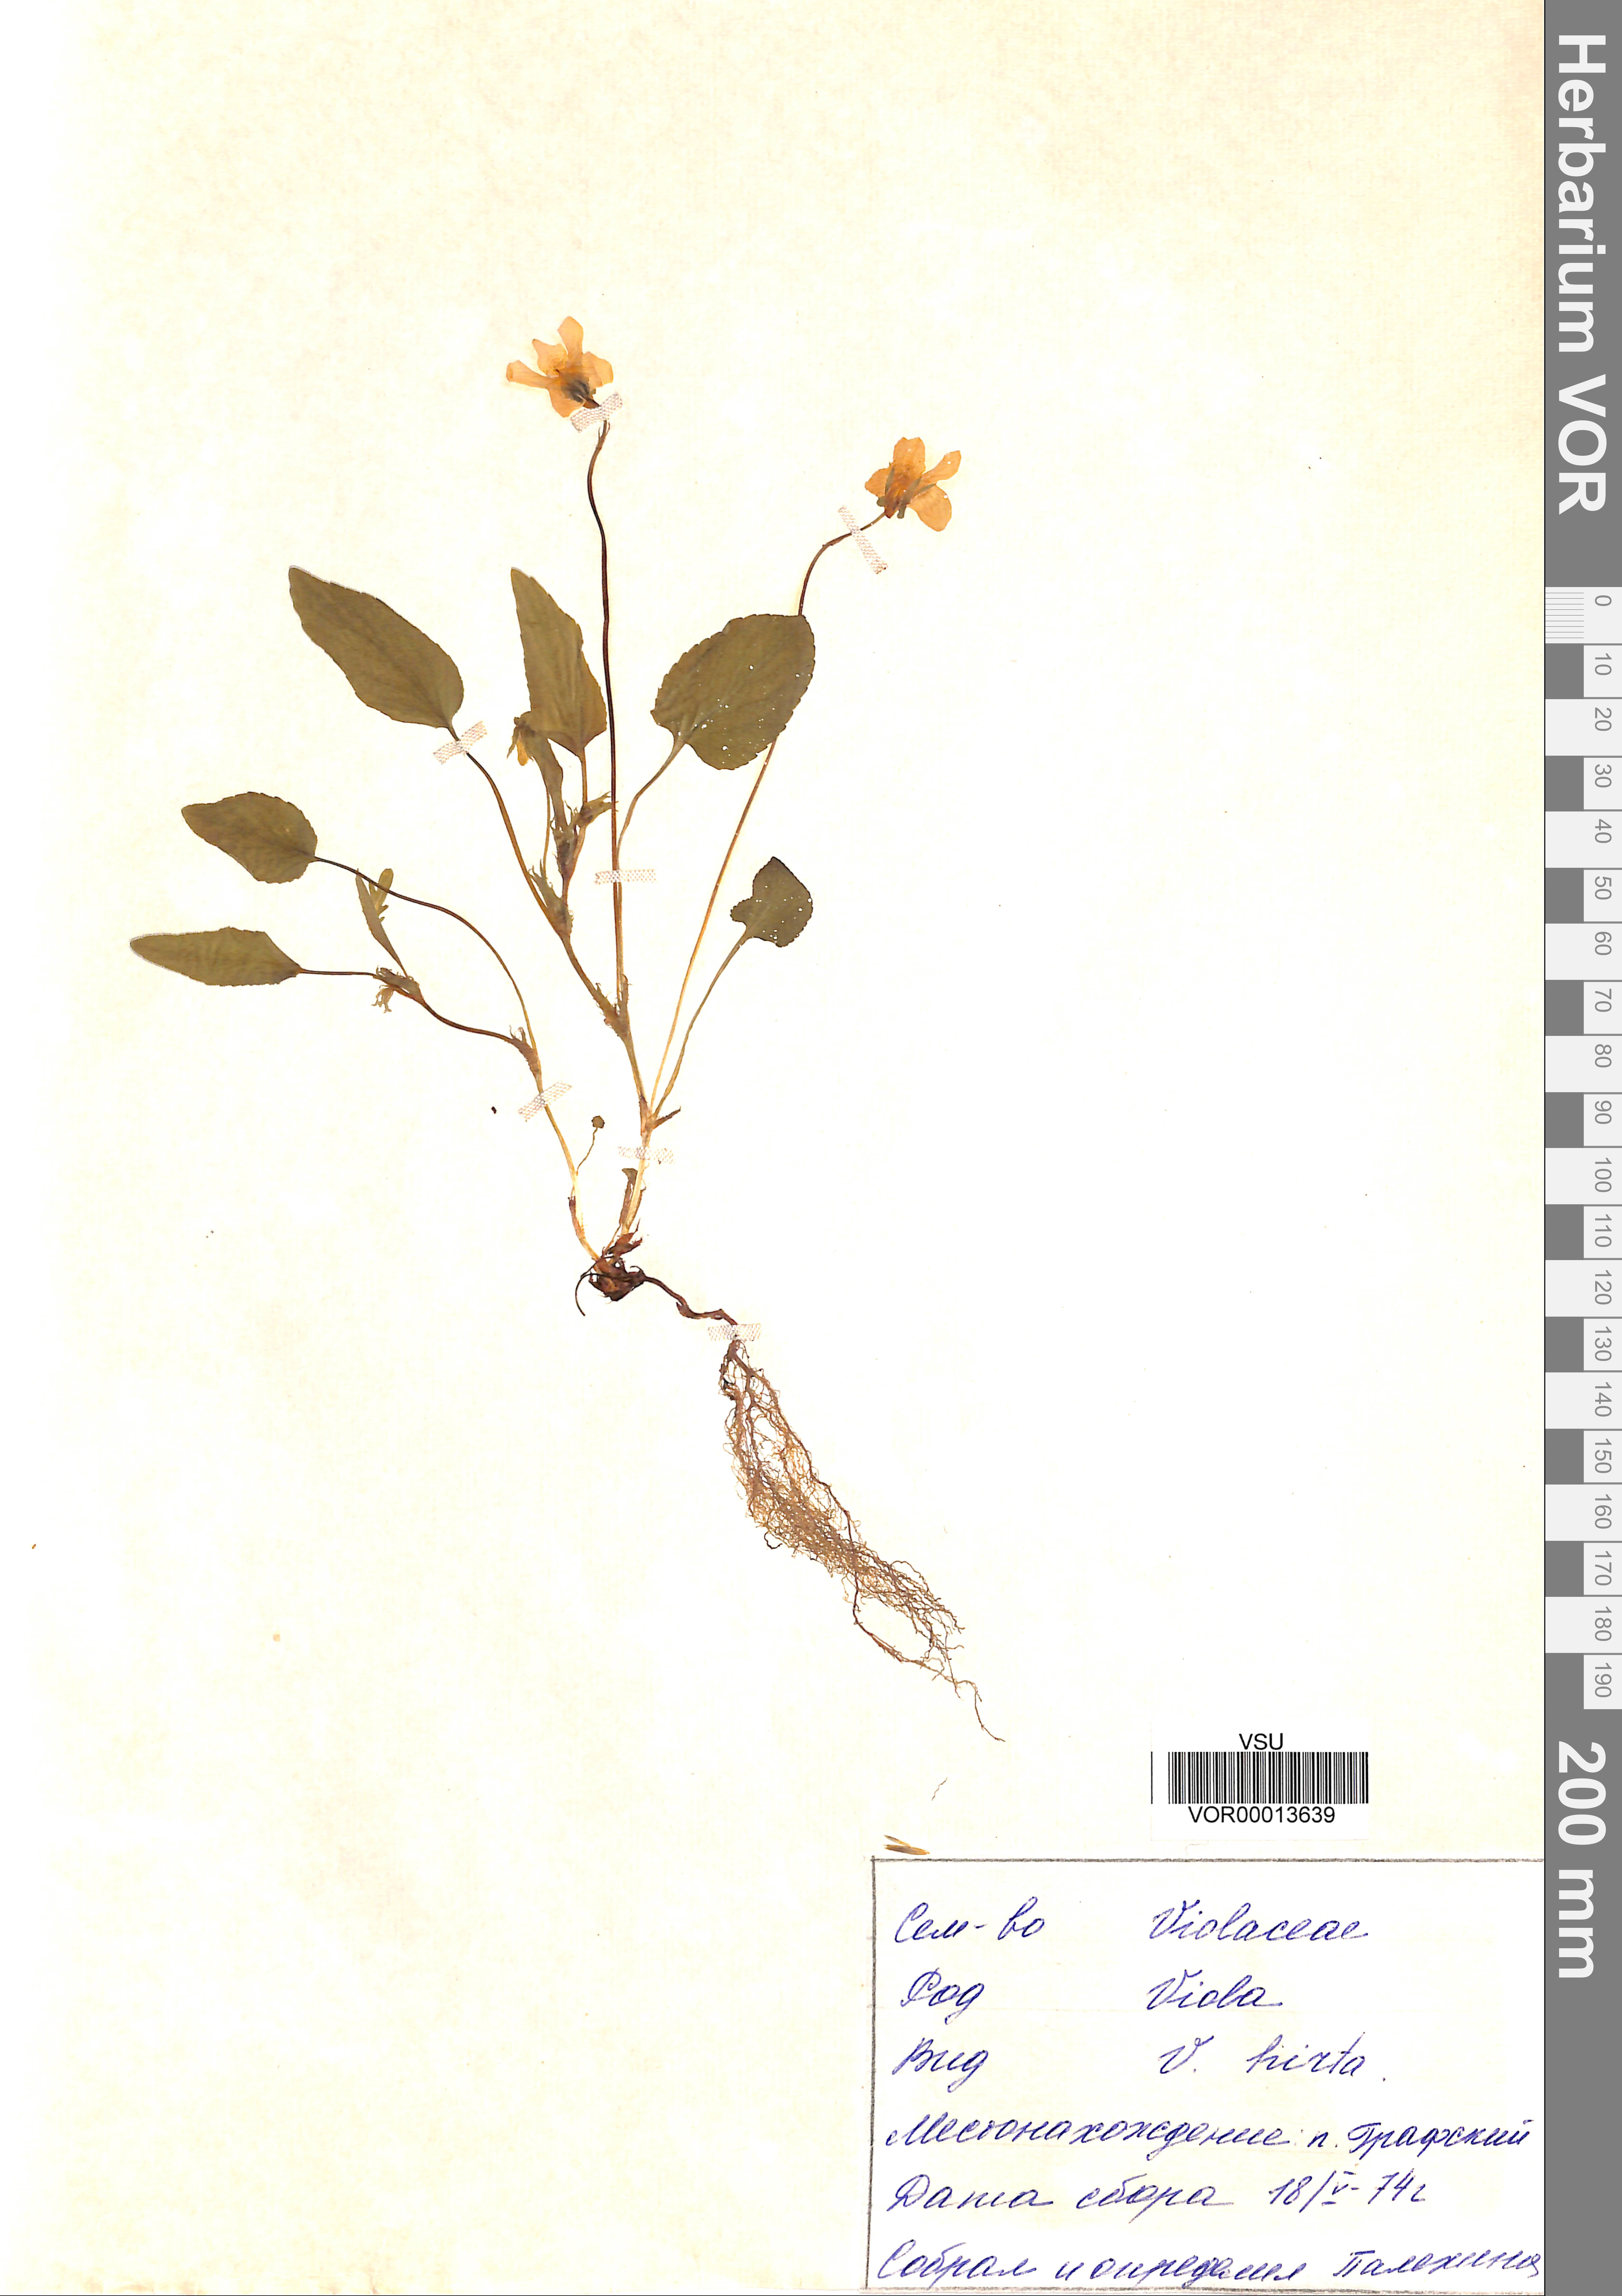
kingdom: Plantae
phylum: Tracheophyta
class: Magnoliopsida
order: Malpighiales
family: Violaceae
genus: Viola
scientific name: Viola hirta
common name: Hairy violet
